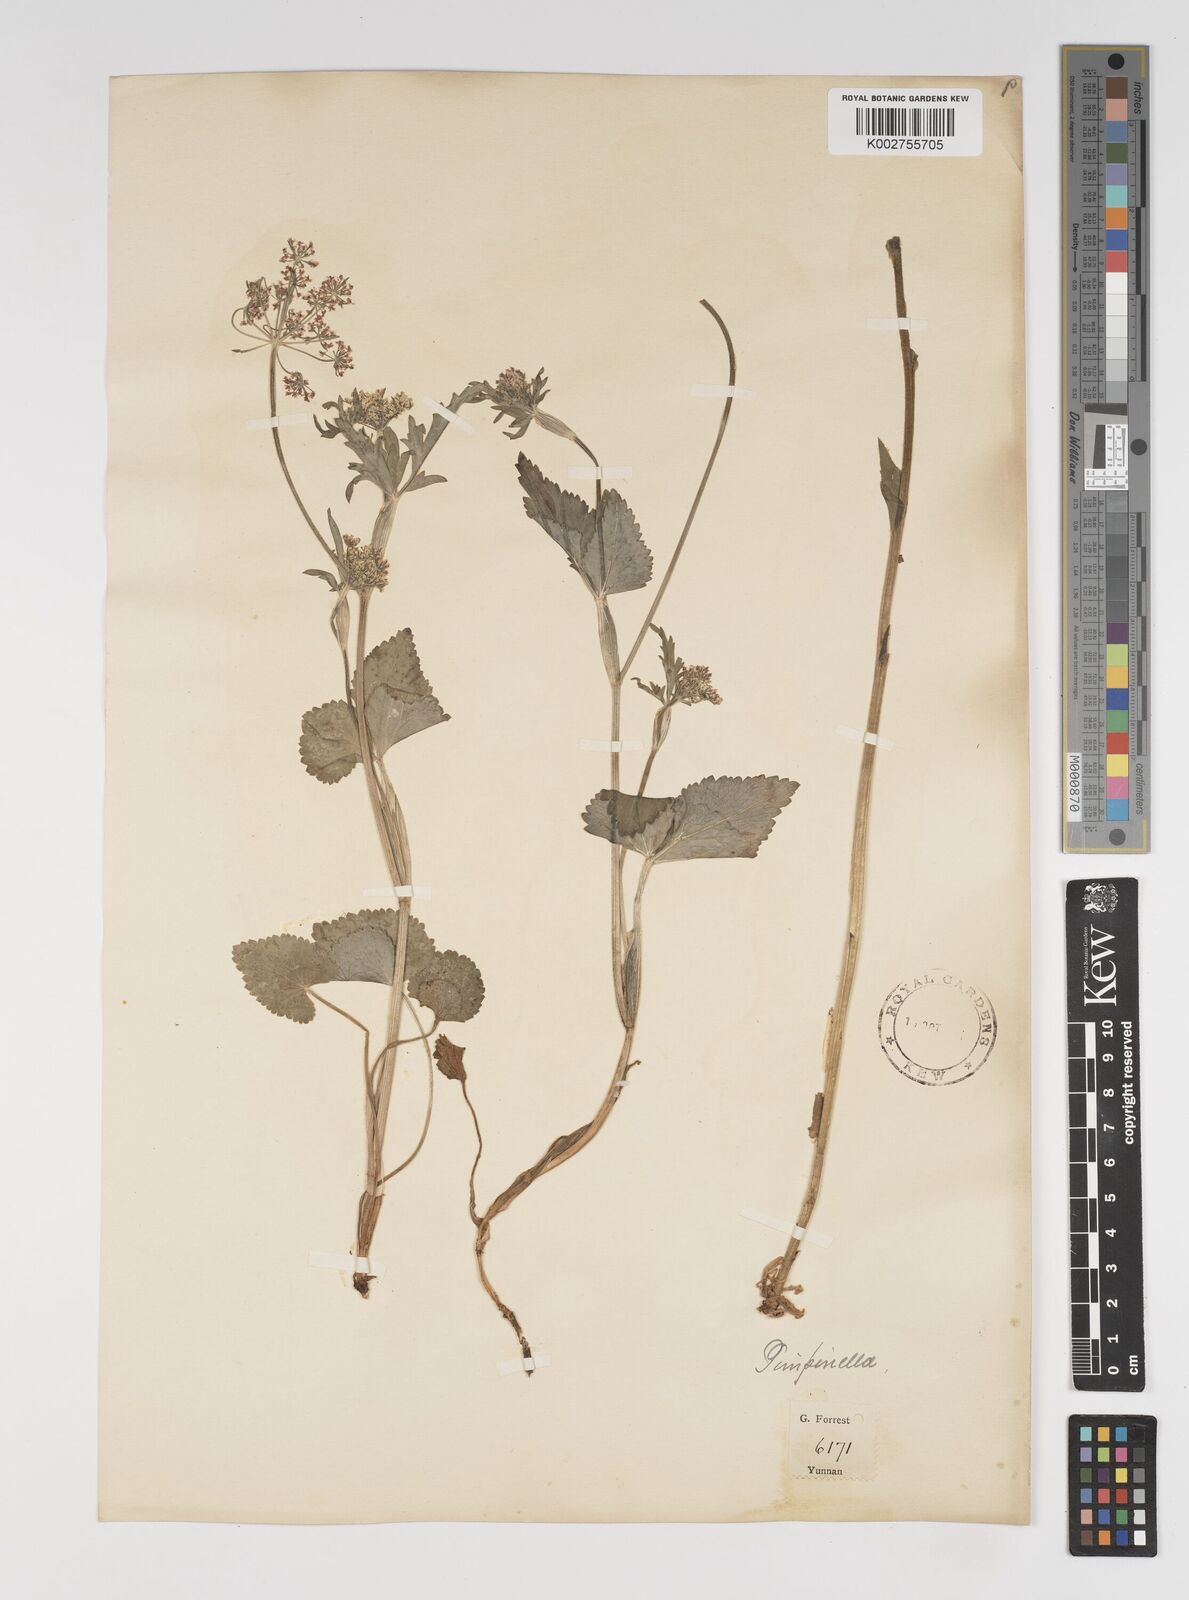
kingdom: Plantae
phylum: Tracheophyta
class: Magnoliopsida
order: Apiales
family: Apiaceae
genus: Pimpinella
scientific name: Pimpinella diversifolia
